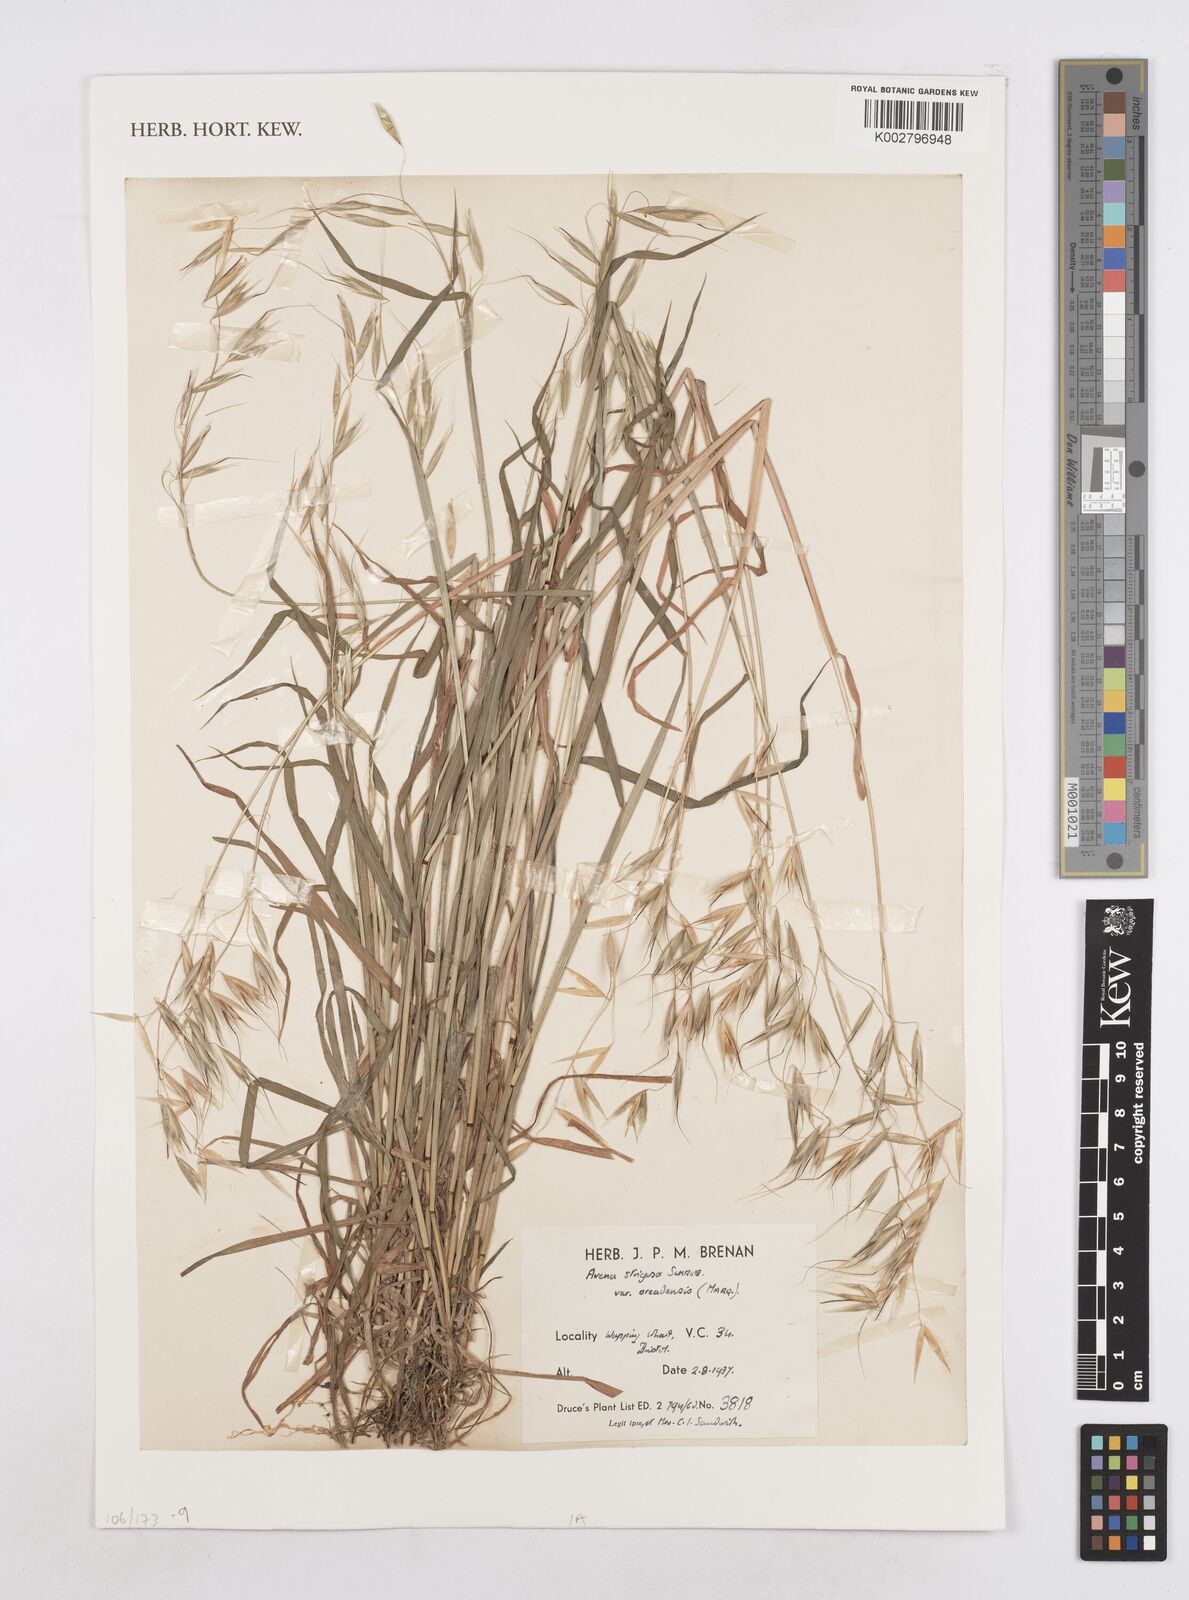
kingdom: Plantae
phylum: Tracheophyta
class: Liliopsida
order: Poales
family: Poaceae
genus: Avena
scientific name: Avena strigosa
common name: Bristle oat
